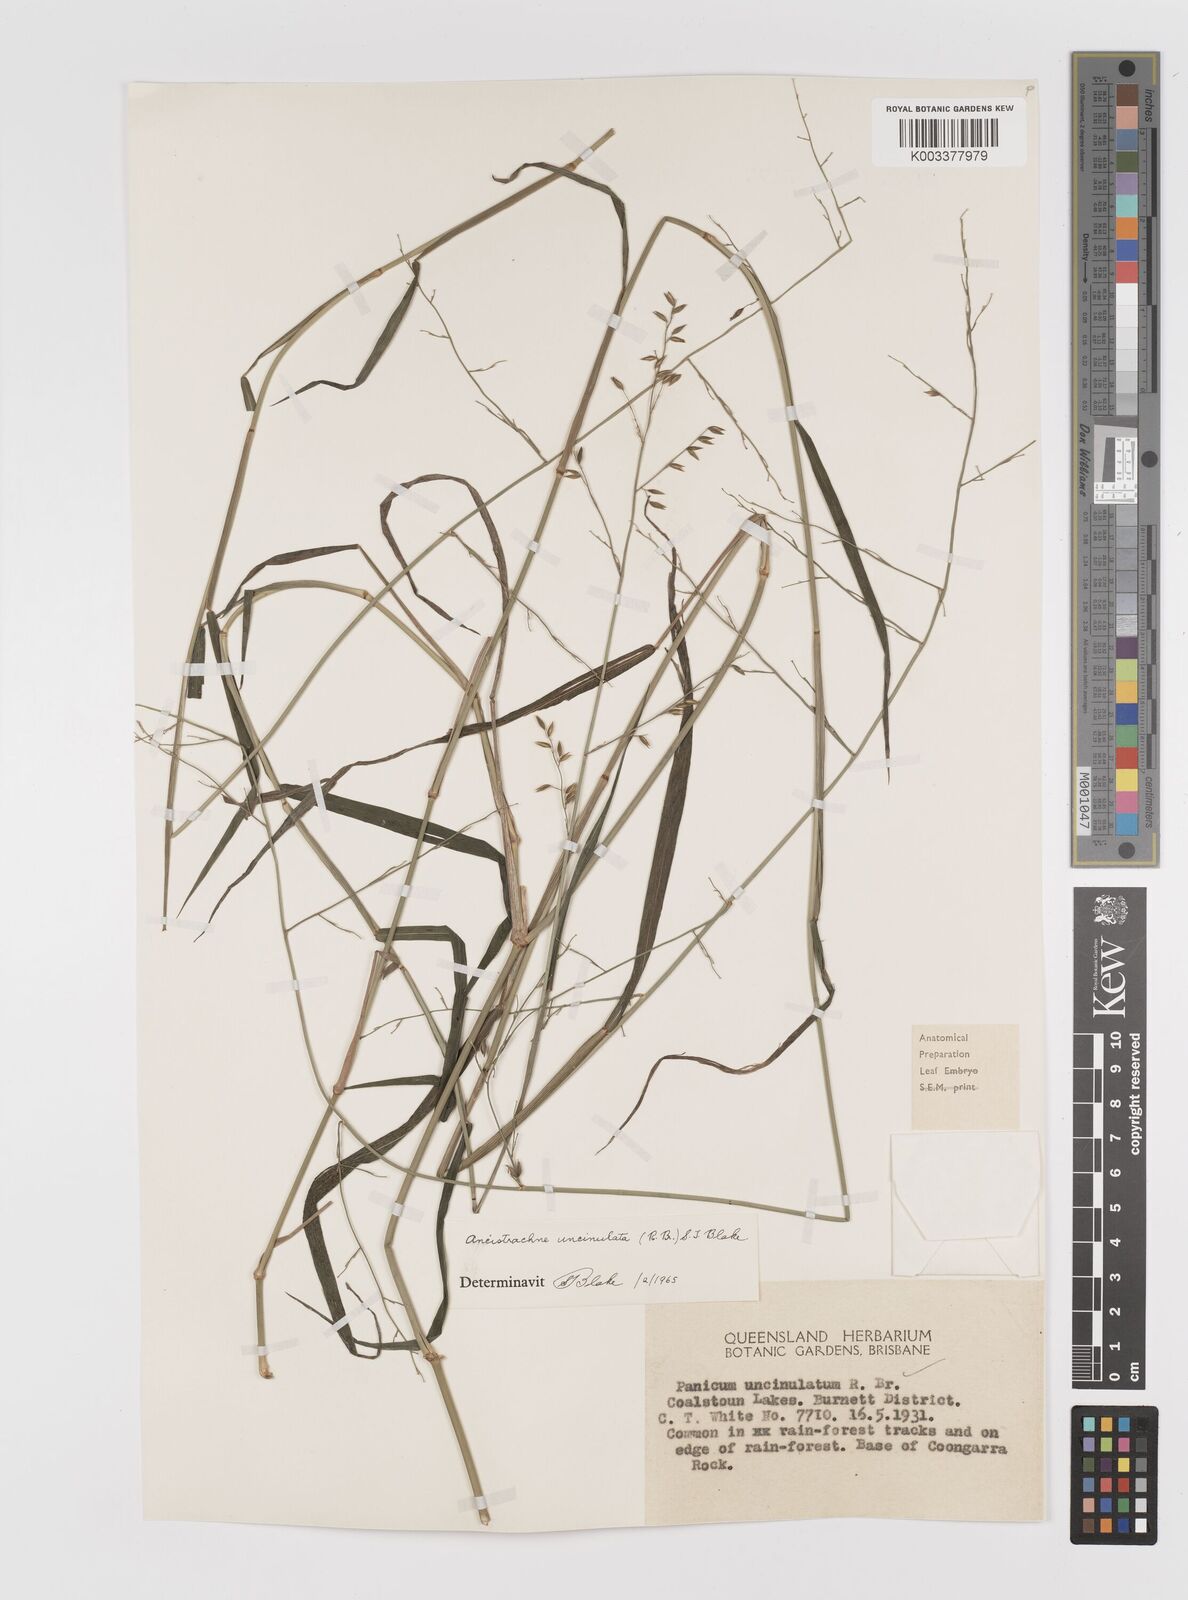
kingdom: Plantae
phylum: Tracheophyta
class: Liliopsida
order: Poales
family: Poaceae
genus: Ancistrachne
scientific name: Ancistrachne uncinulata
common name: Hooky grass
